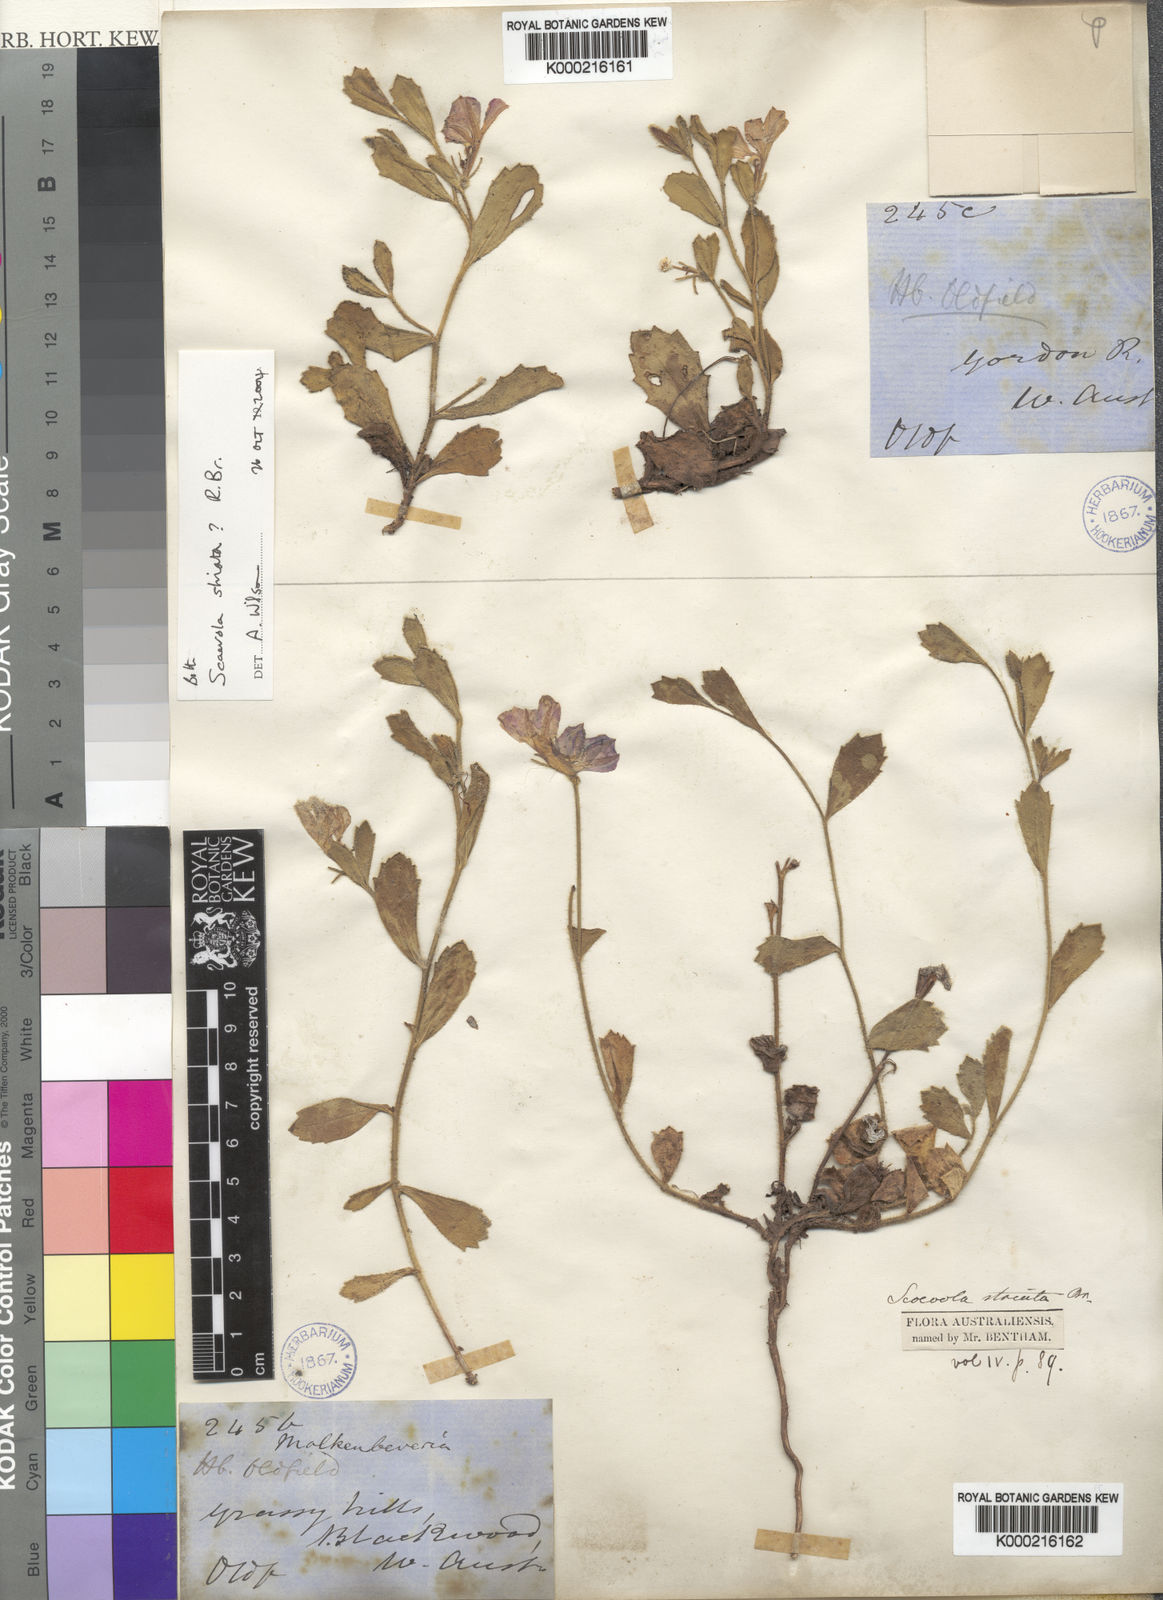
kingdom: Plantae
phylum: Tracheophyta
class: Magnoliopsida
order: Asterales
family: Goodeniaceae
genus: Scaevola
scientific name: Scaevola striata
